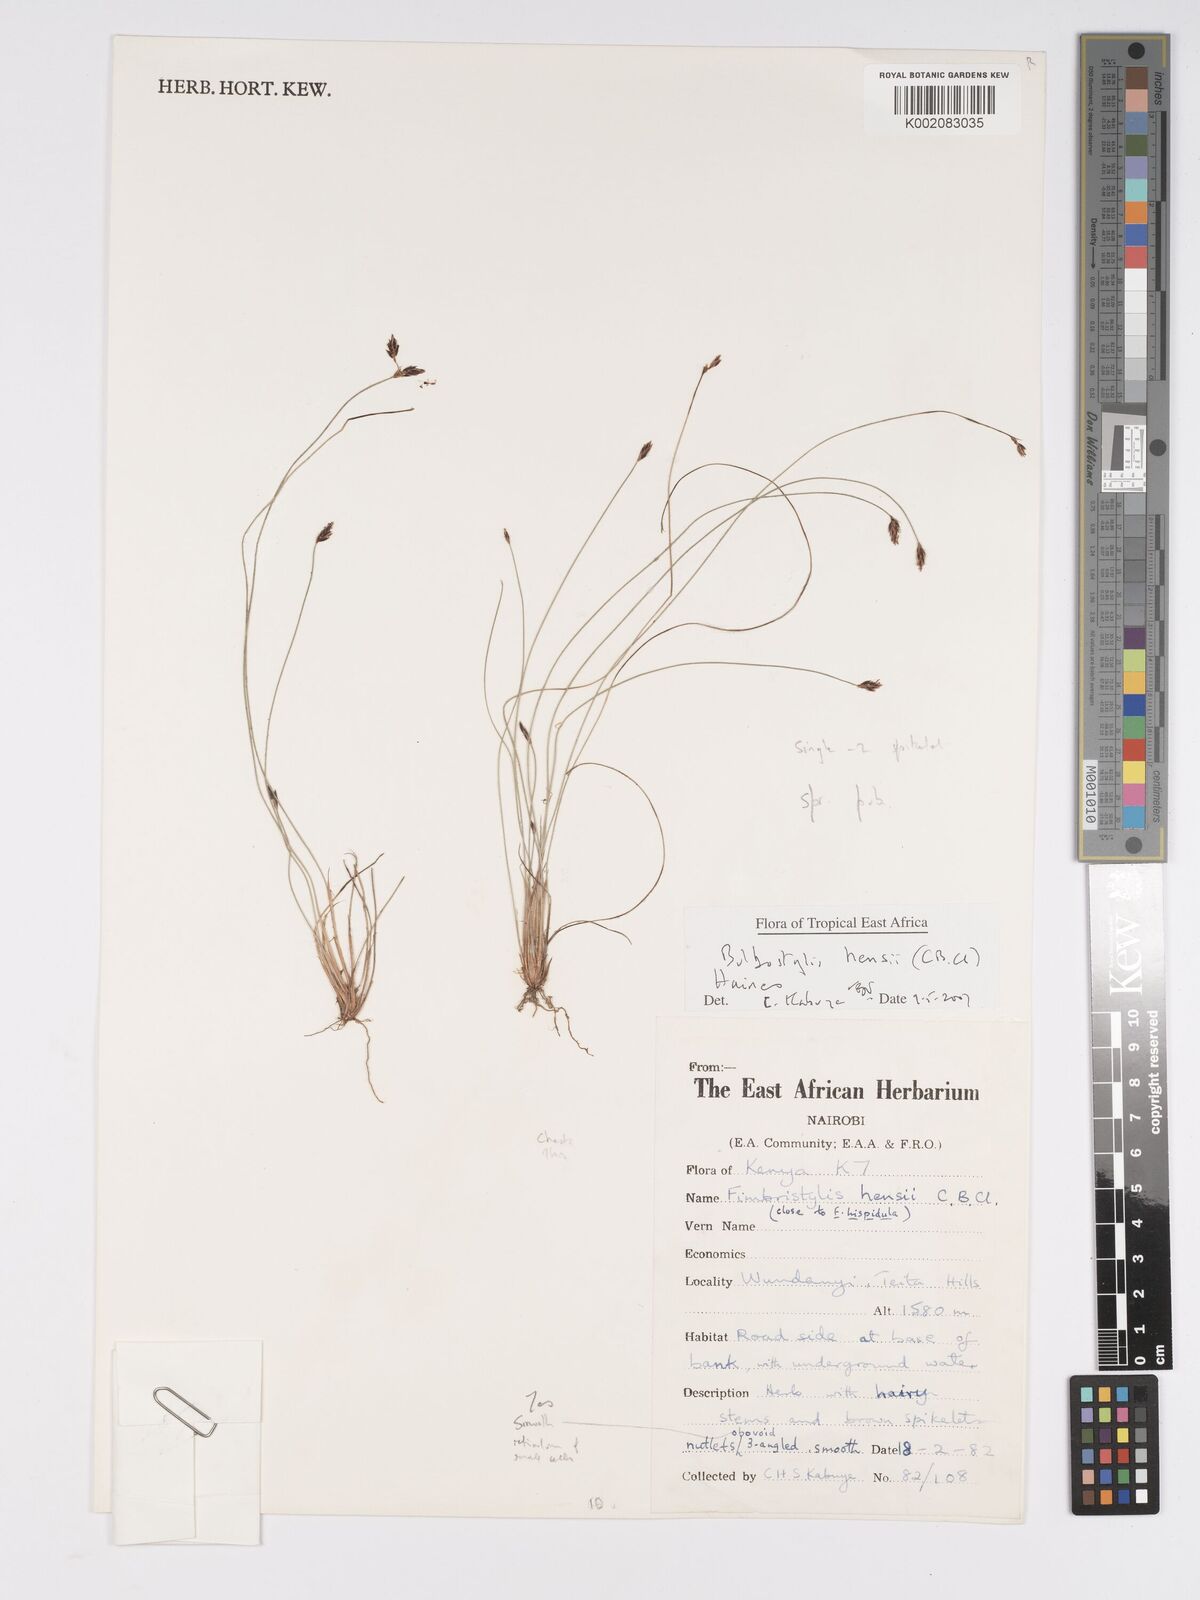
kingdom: Plantae
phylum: Tracheophyta
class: Liliopsida
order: Poales
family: Cyperaceae
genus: Bulbostylis
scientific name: Bulbostylis hensii
